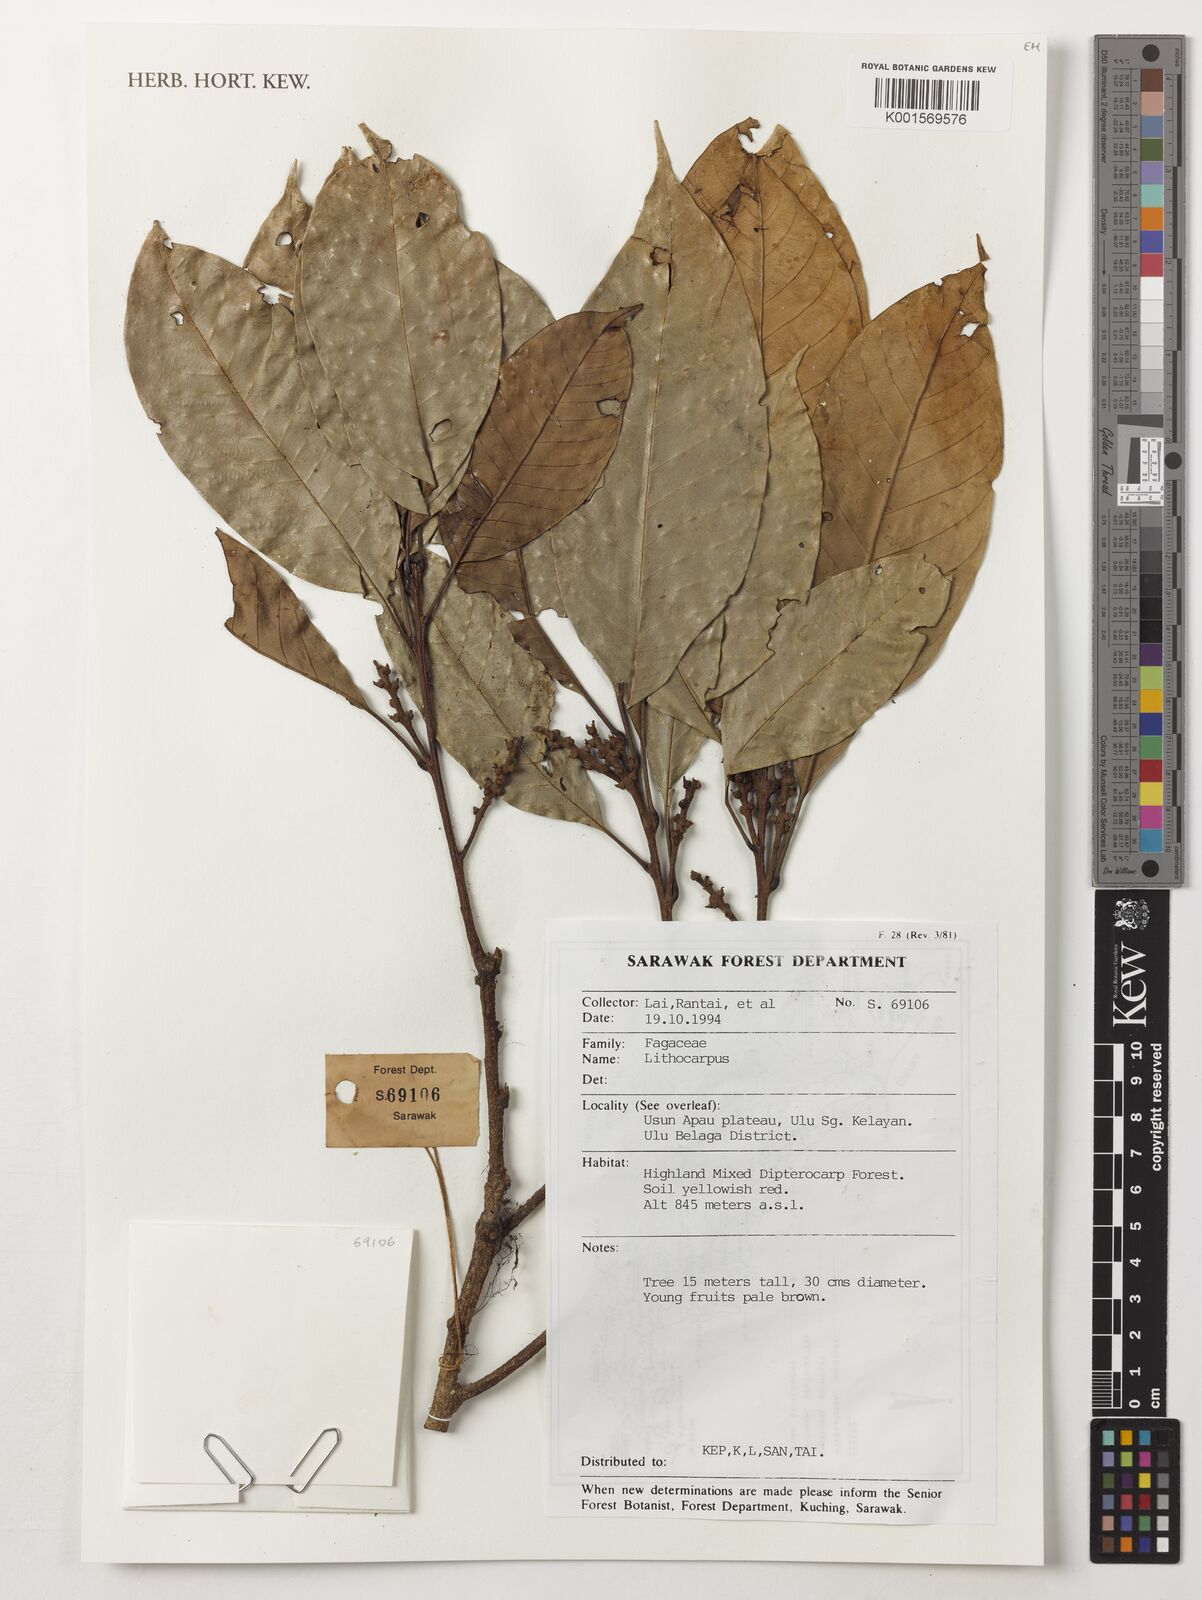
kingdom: Plantae
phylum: Tracheophyta
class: Magnoliopsida
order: Fagales
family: Fagaceae
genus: Lithocarpus
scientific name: Lithocarpus
